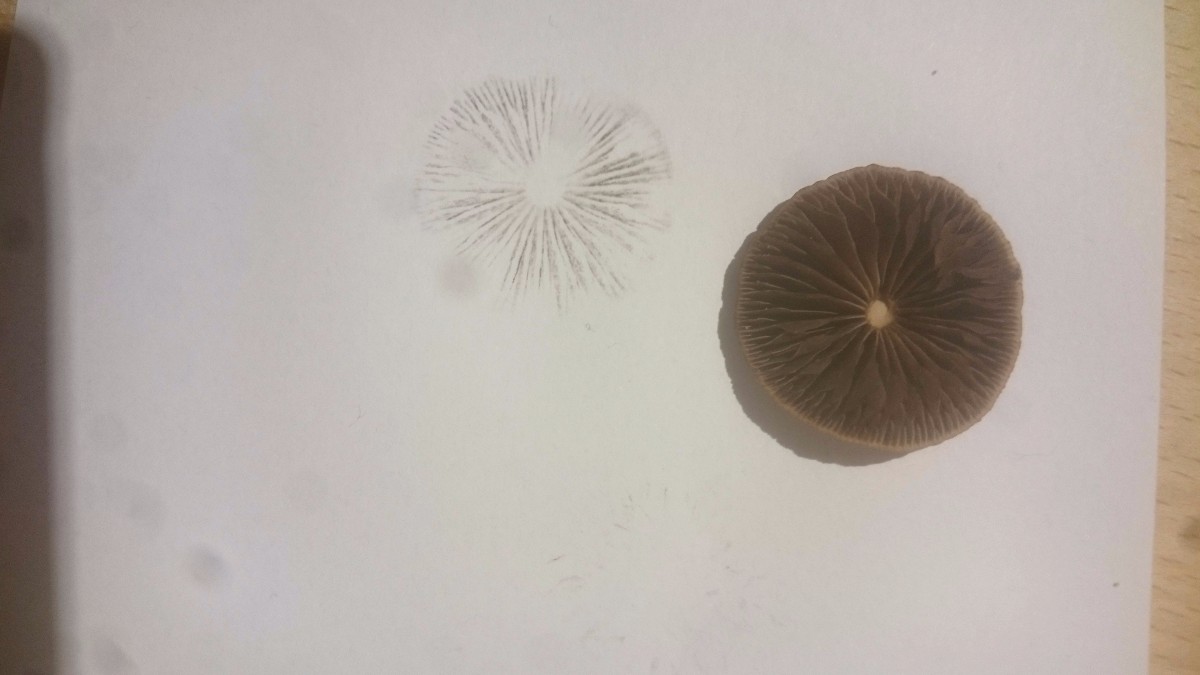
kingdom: Fungi
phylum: Basidiomycota
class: Agaricomycetes
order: Agaricales
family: Bolbitiaceae
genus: Panaeolina
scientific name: Panaeolina foenisecii
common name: høslætsvamp
